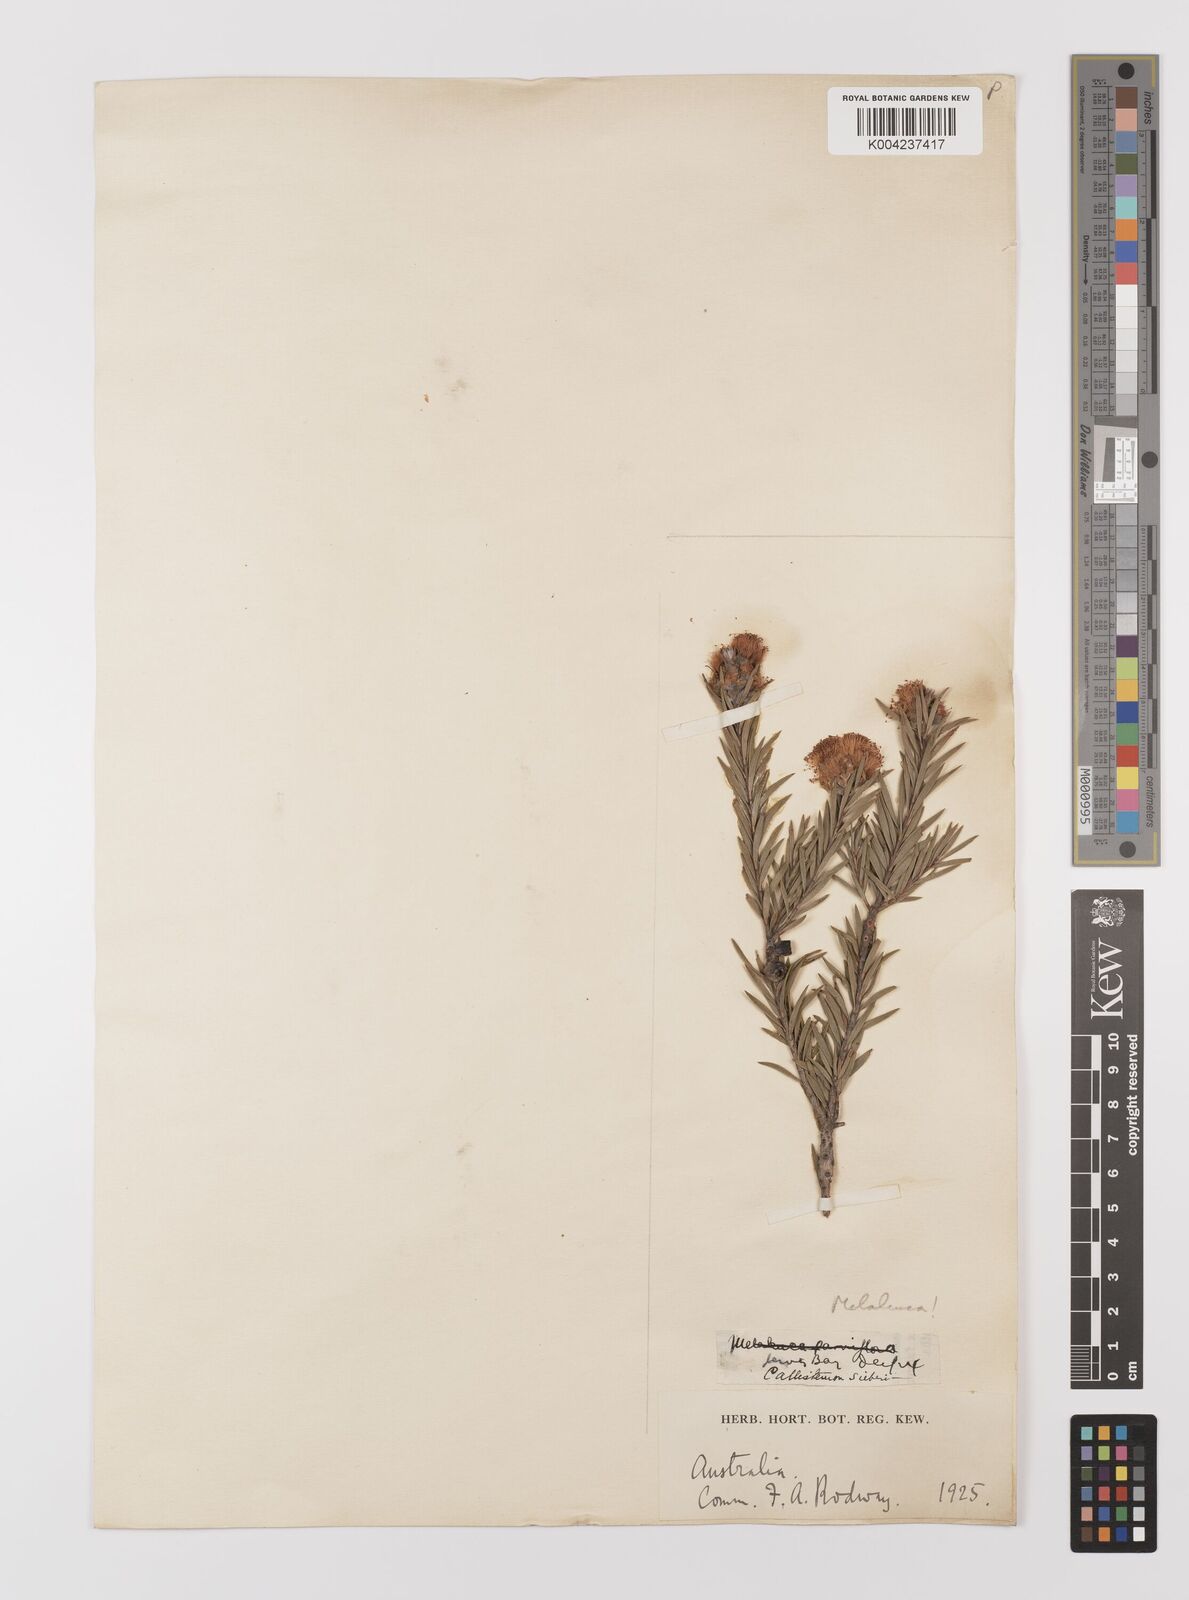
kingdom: Plantae
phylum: Tracheophyta
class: Magnoliopsida
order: Myrtales
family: Myrtaceae
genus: Melaleuca
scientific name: Melaleuca
